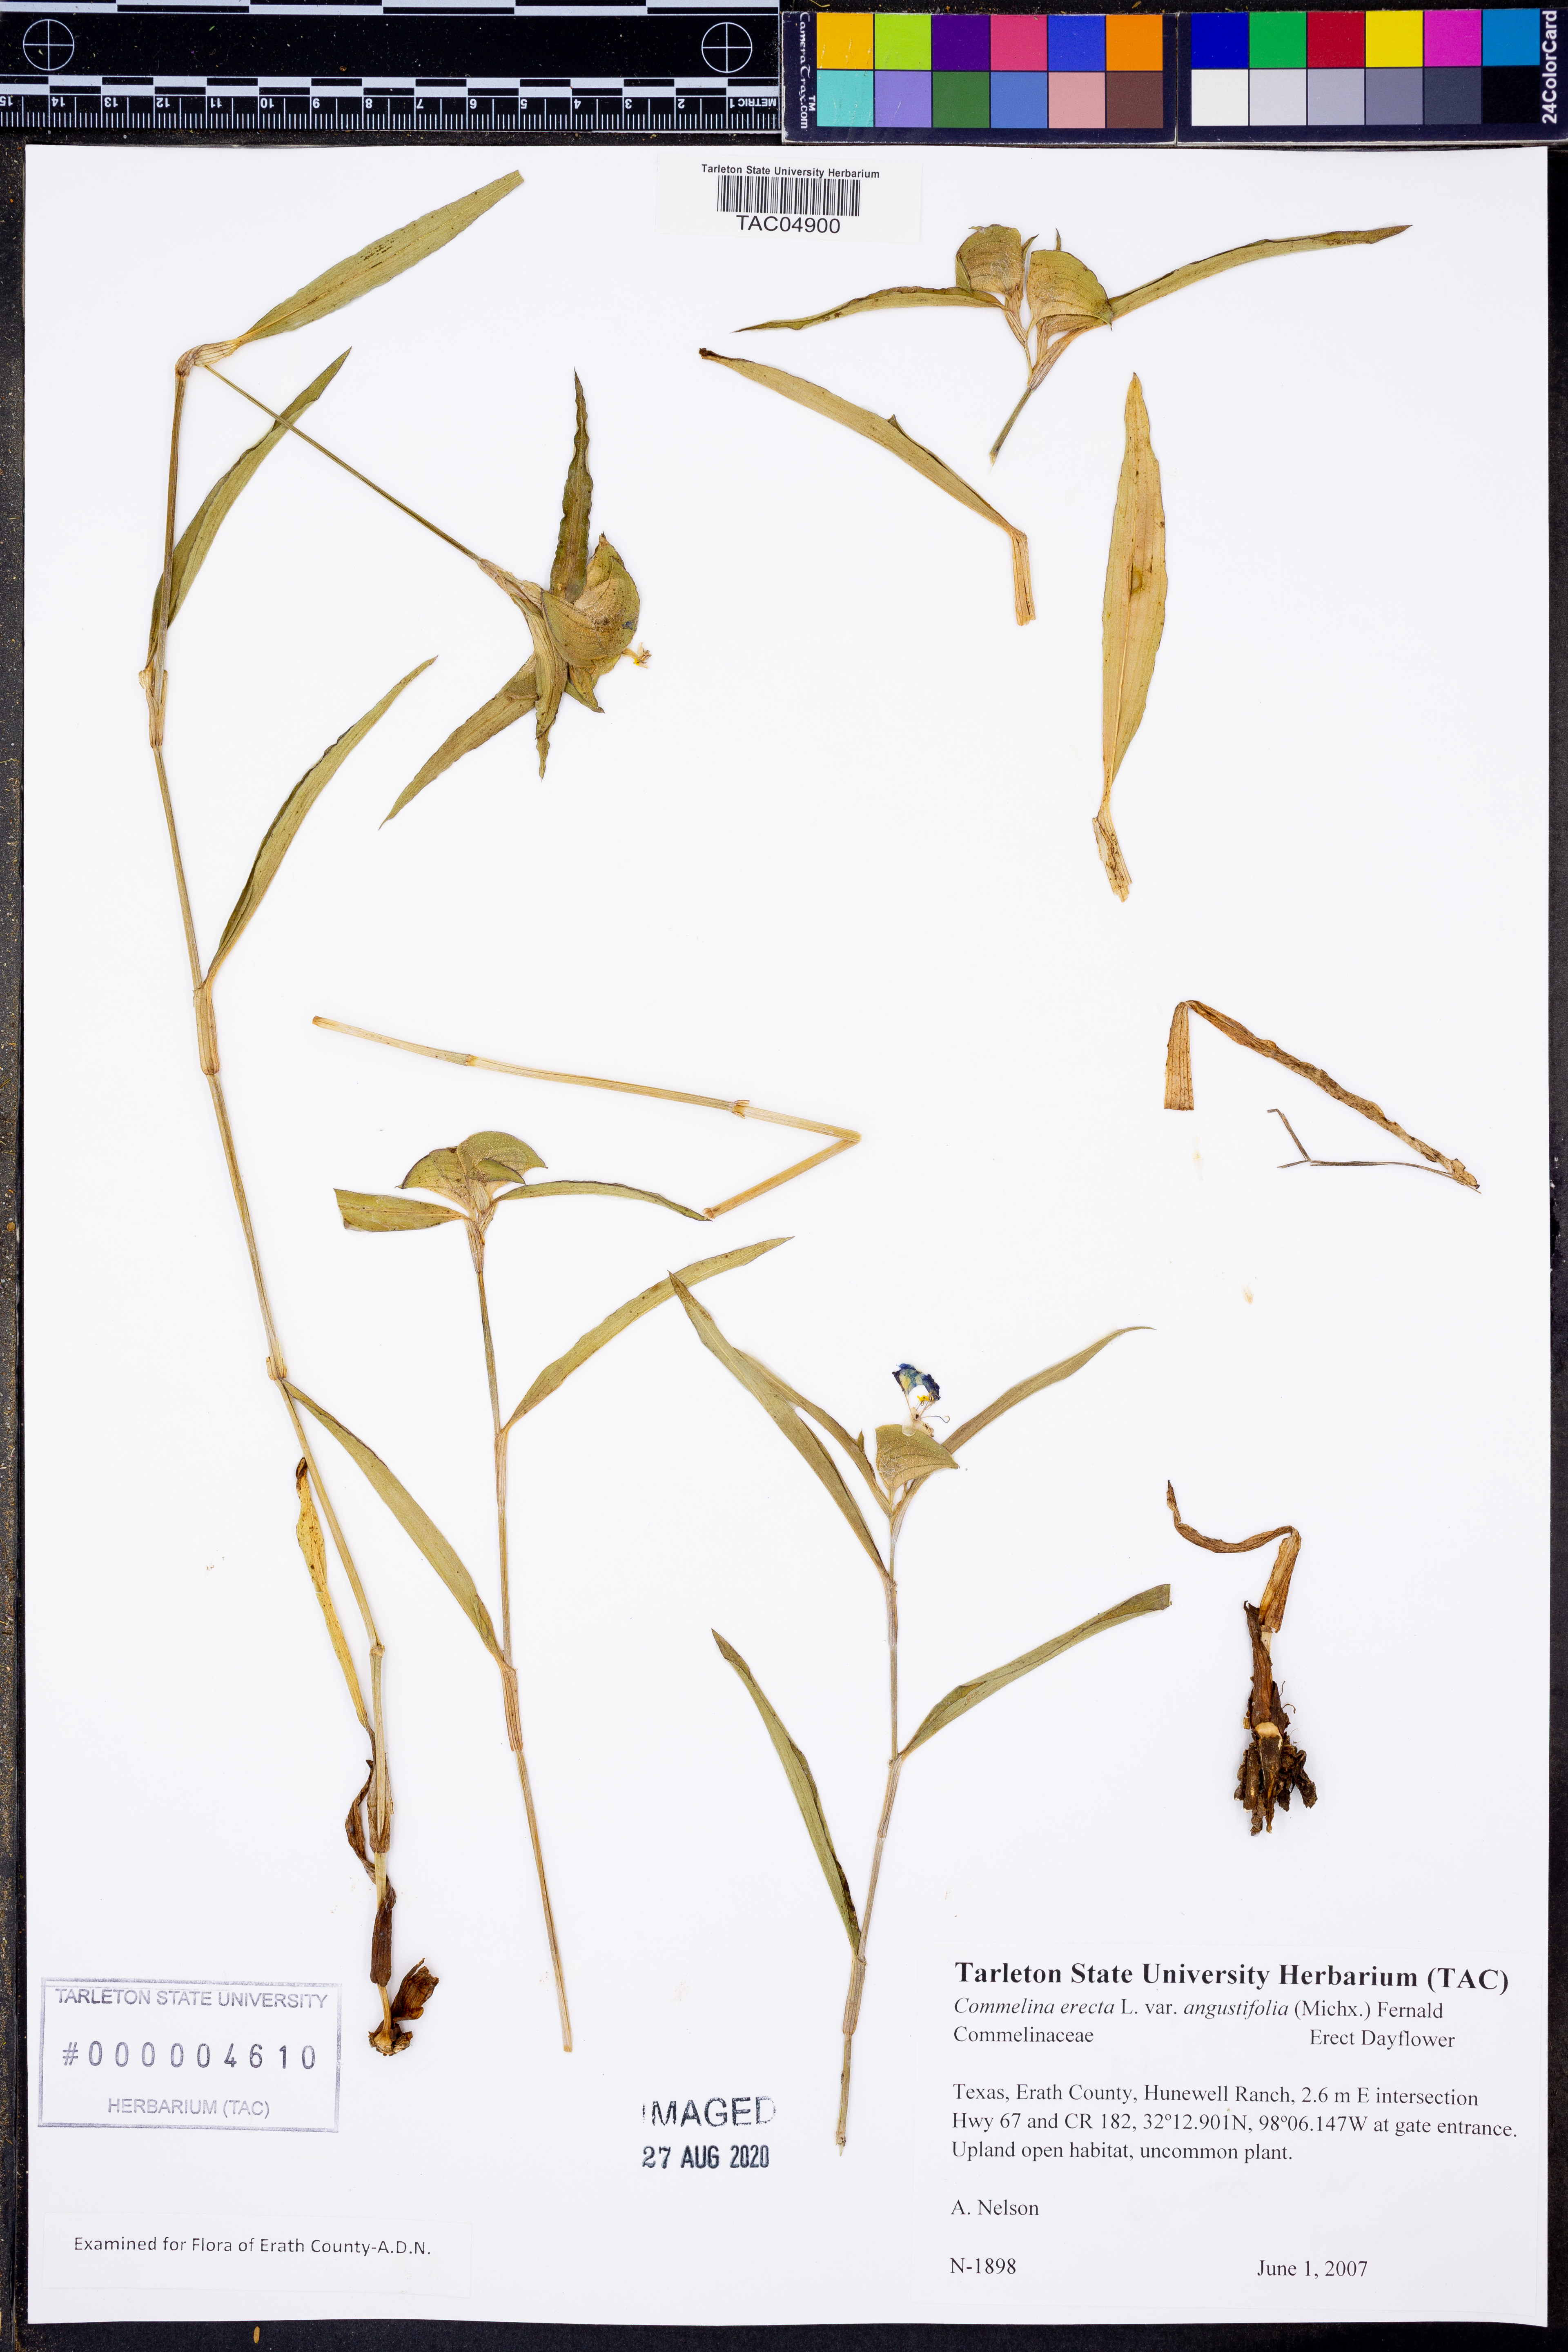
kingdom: Plantae
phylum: Tracheophyta
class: Liliopsida
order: Commelinales
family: Commelinaceae
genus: Commelina
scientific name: Commelina erecta
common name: Blousel blommetjie
